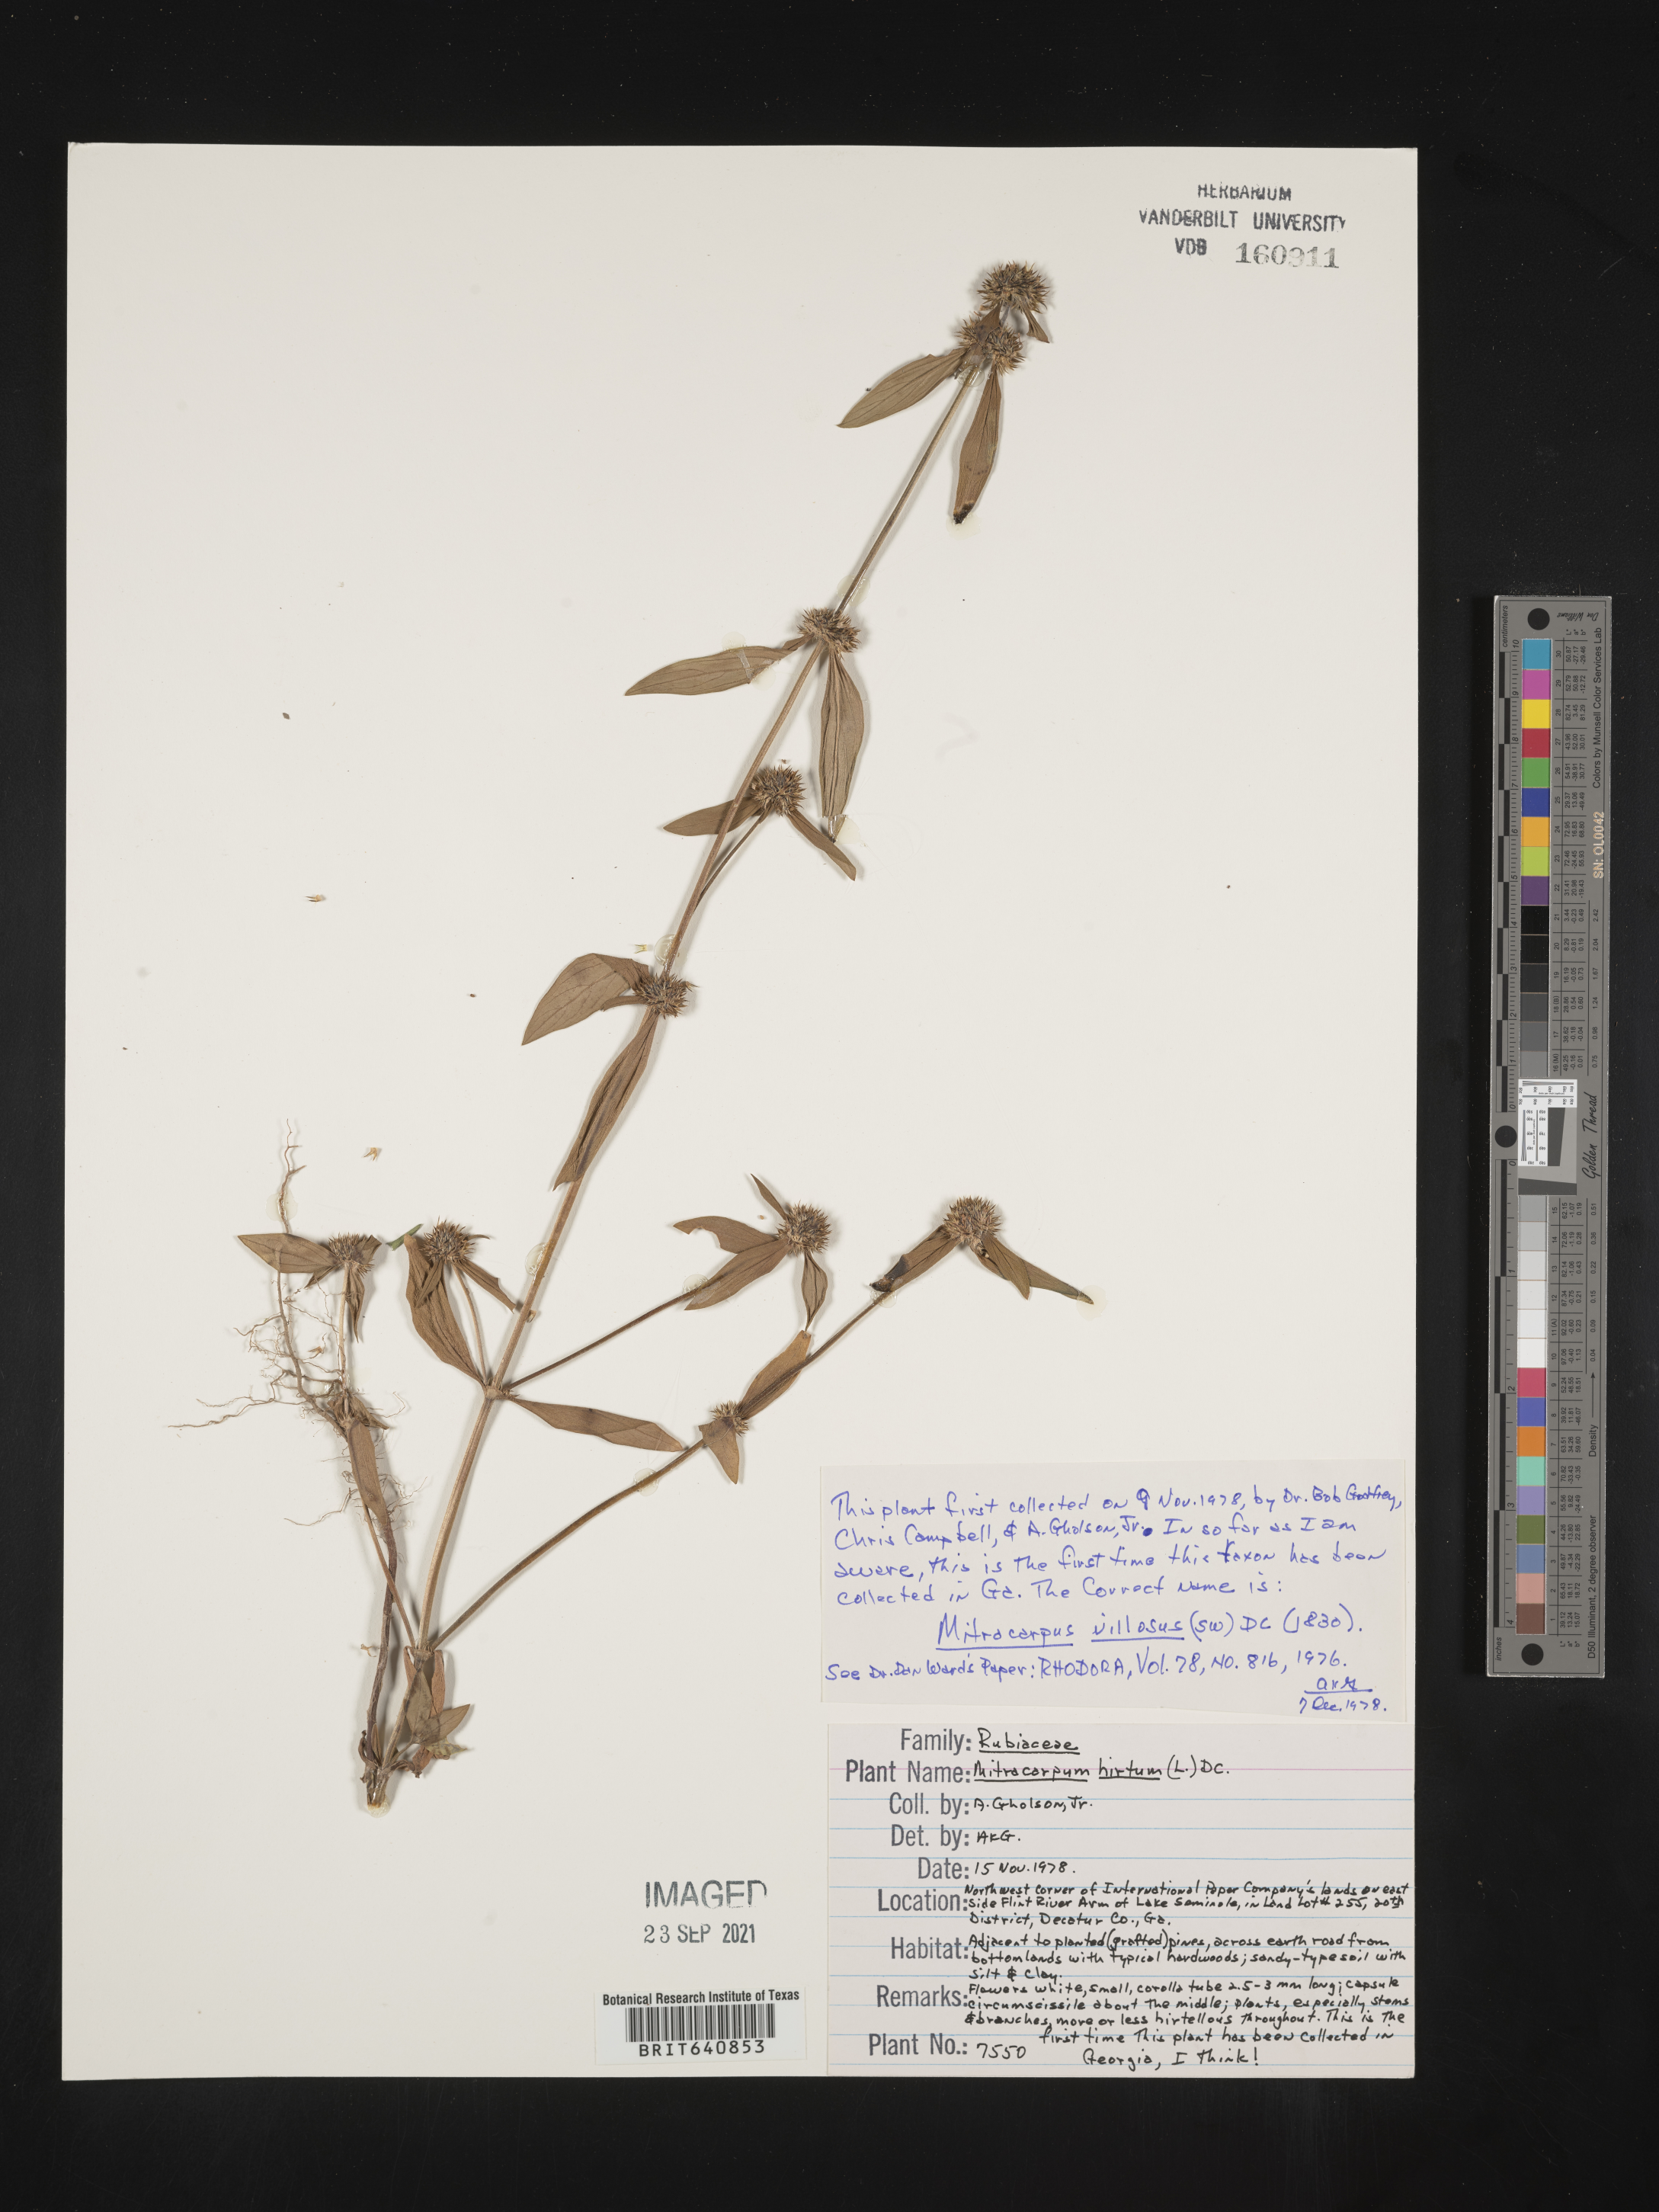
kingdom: Plantae
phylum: Tracheophyta
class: Magnoliopsida
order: Gentianales
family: Rubiaceae
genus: Mitracarpus
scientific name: Mitracarpus hirtus
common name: Tropical girdlepod
